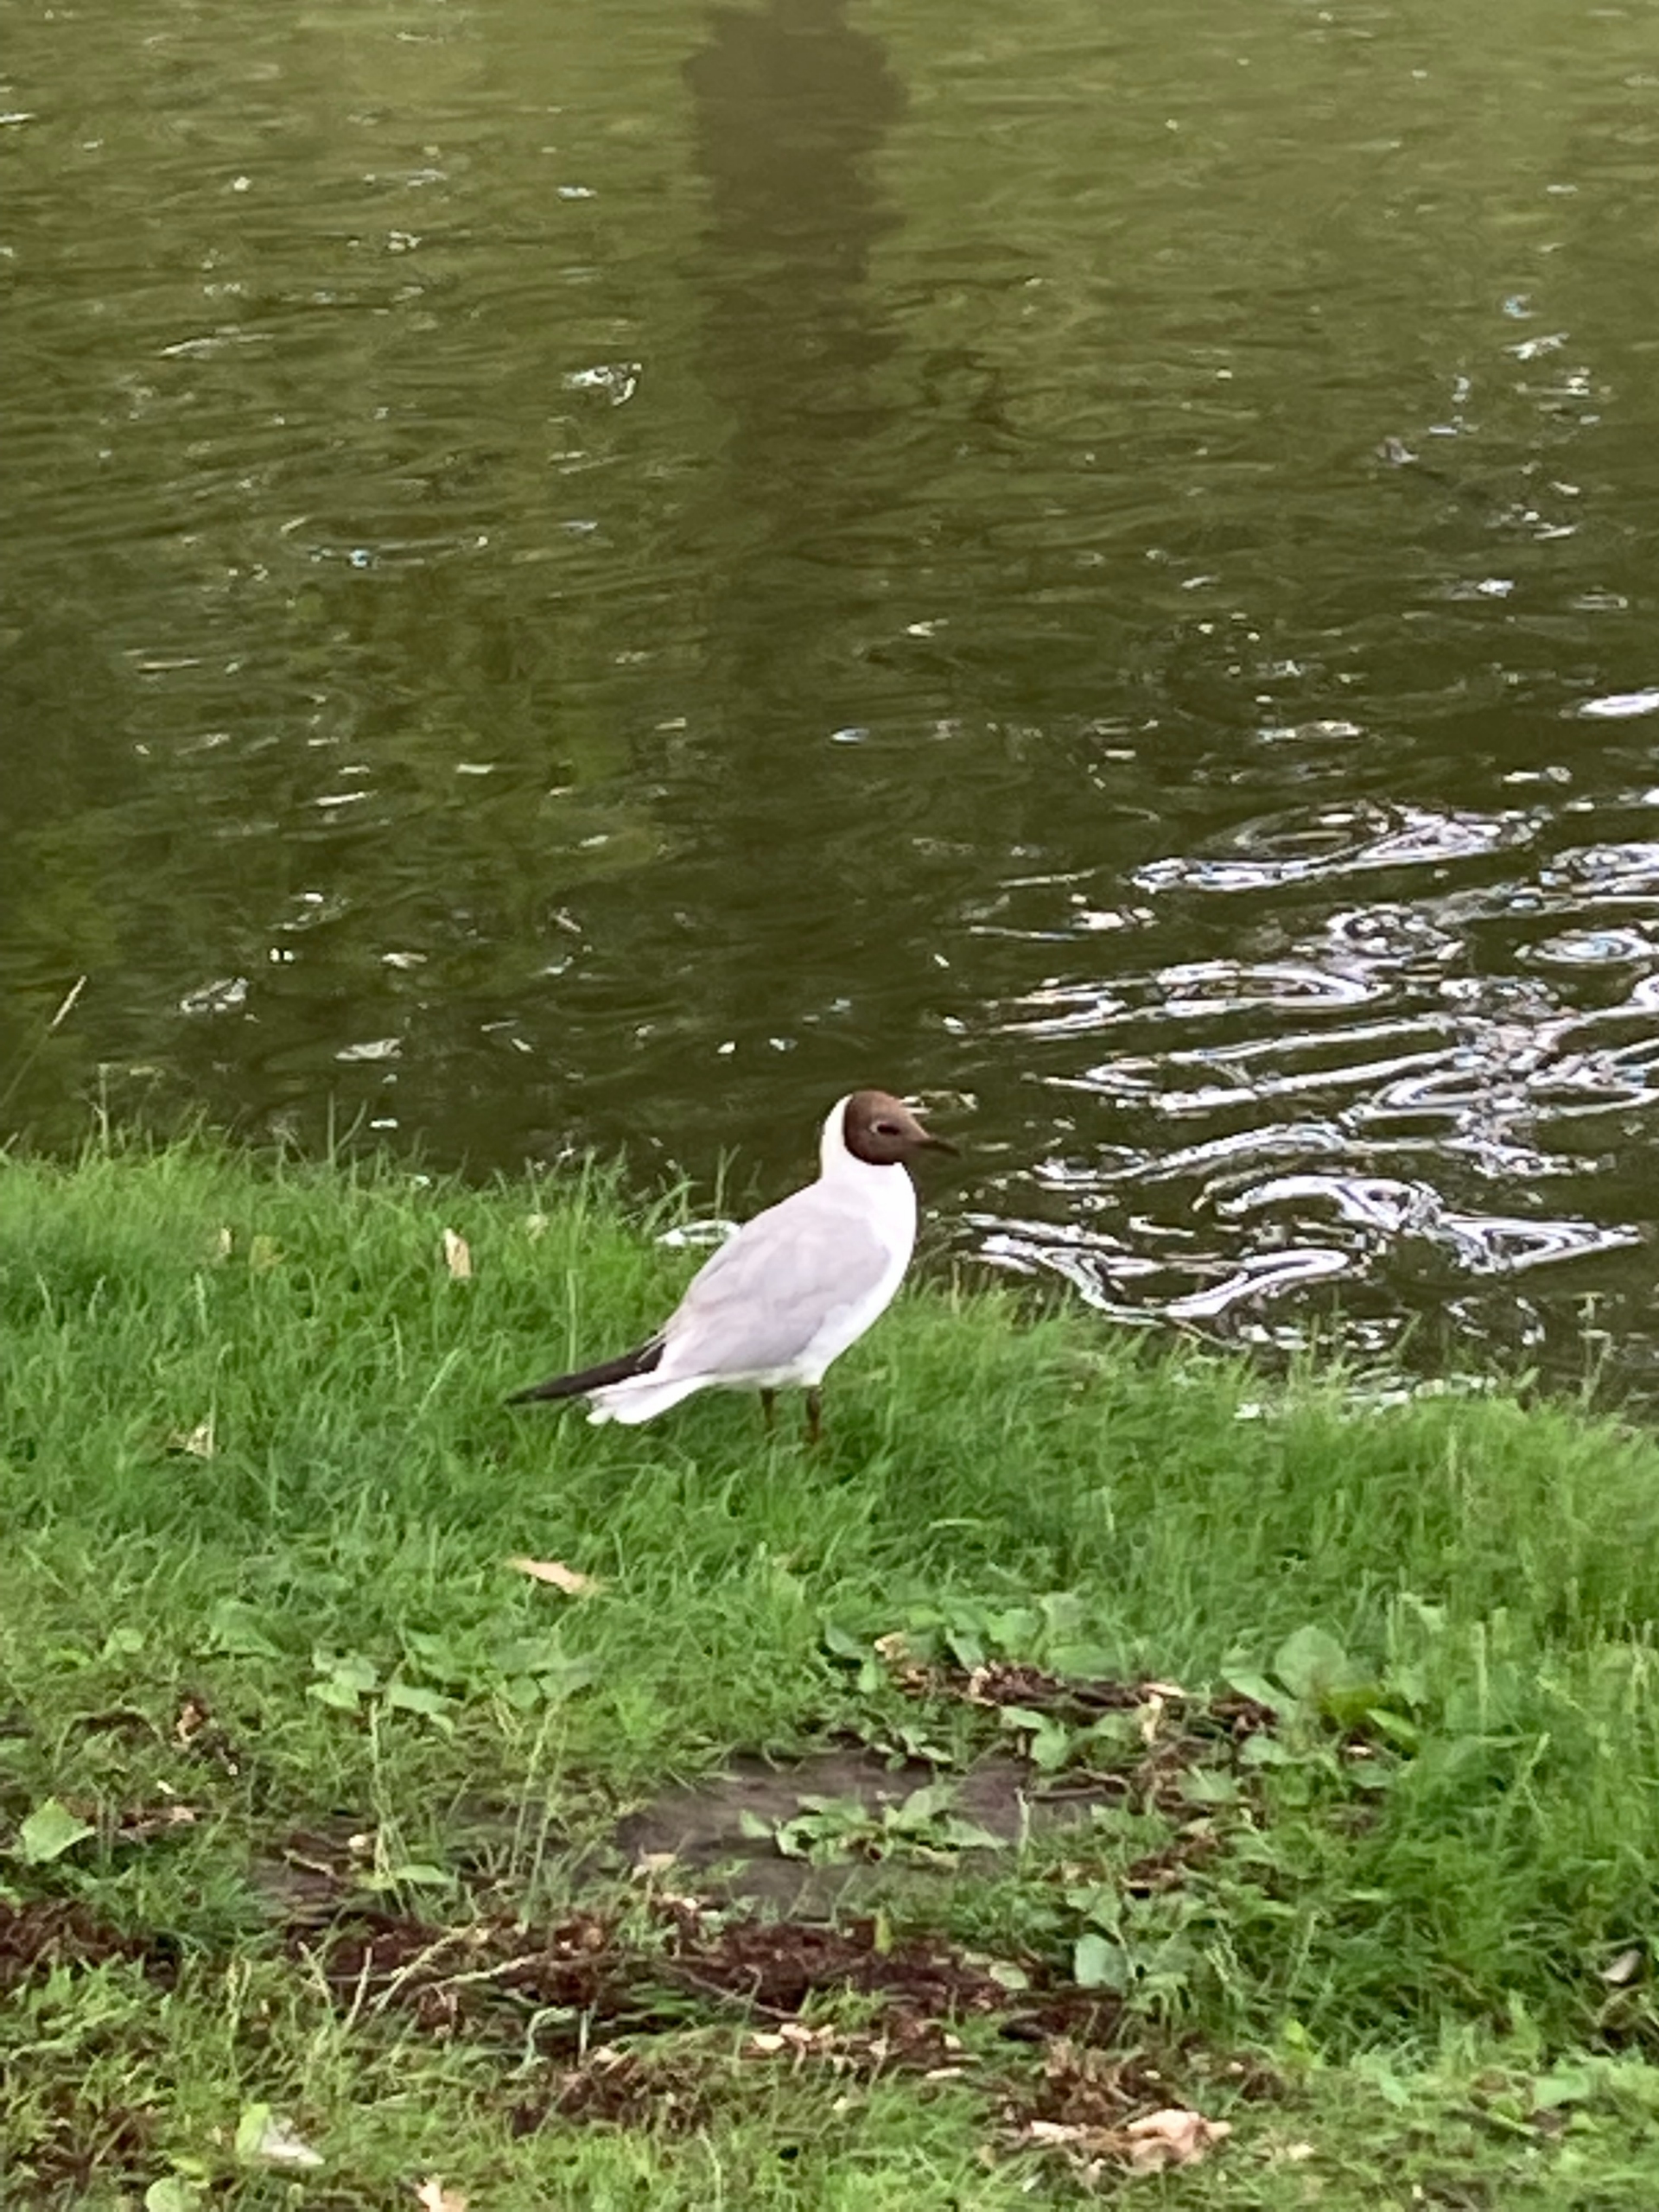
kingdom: Animalia
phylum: Chordata
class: Aves
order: Charadriiformes
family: Laridae
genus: Chroicocephalus
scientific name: Chroicocephalus ridibundus
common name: Hættemåge
